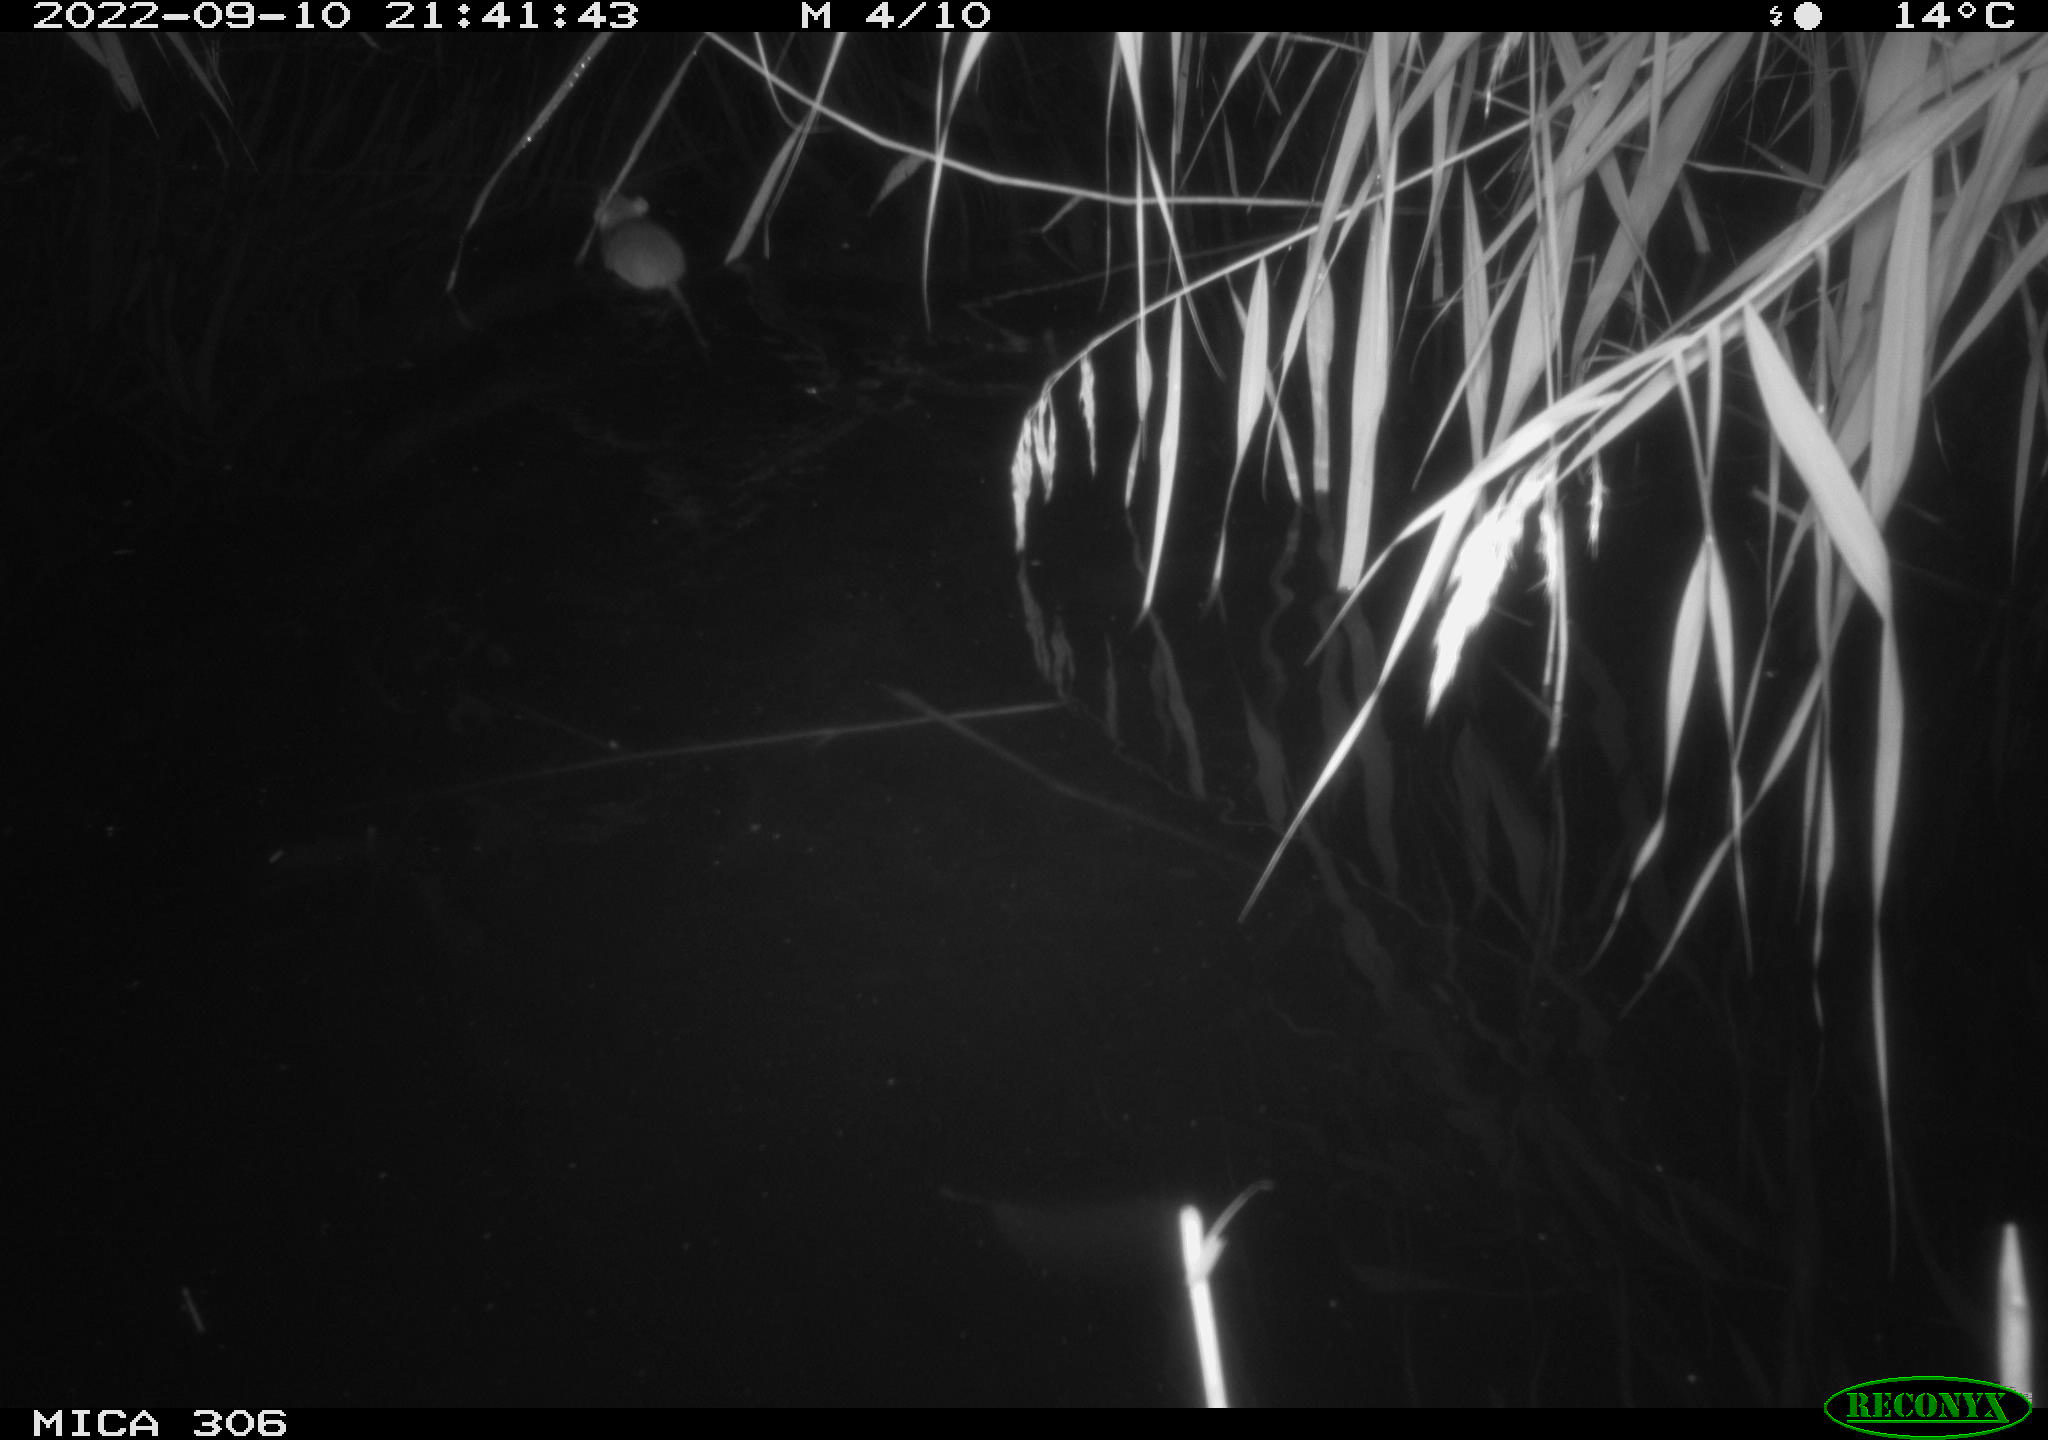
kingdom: Animalia
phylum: Chordata
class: Mammalia
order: Rodentia
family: Muridae
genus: Rattus
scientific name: Rattus norvegicus
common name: Brown rat
